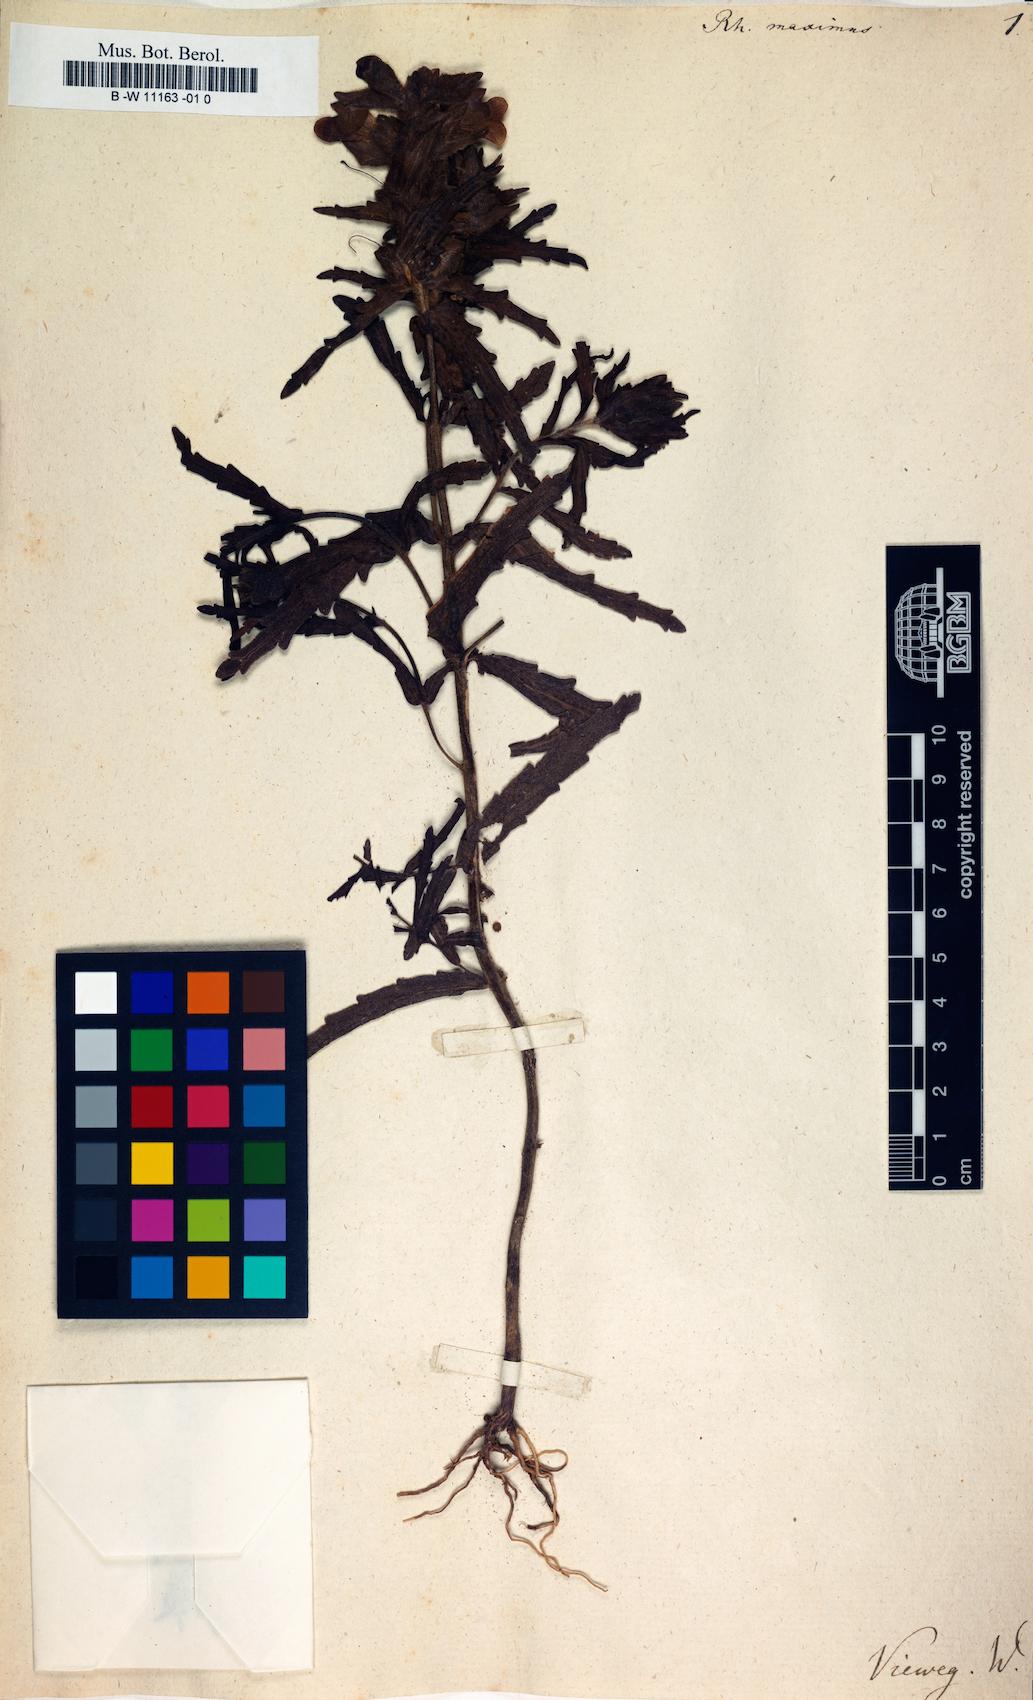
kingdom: Plantae
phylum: Tracheophyta
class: Magnoliopsida
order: Lamiales
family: Orobanchaceae
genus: Bellardia
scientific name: Bellardia
